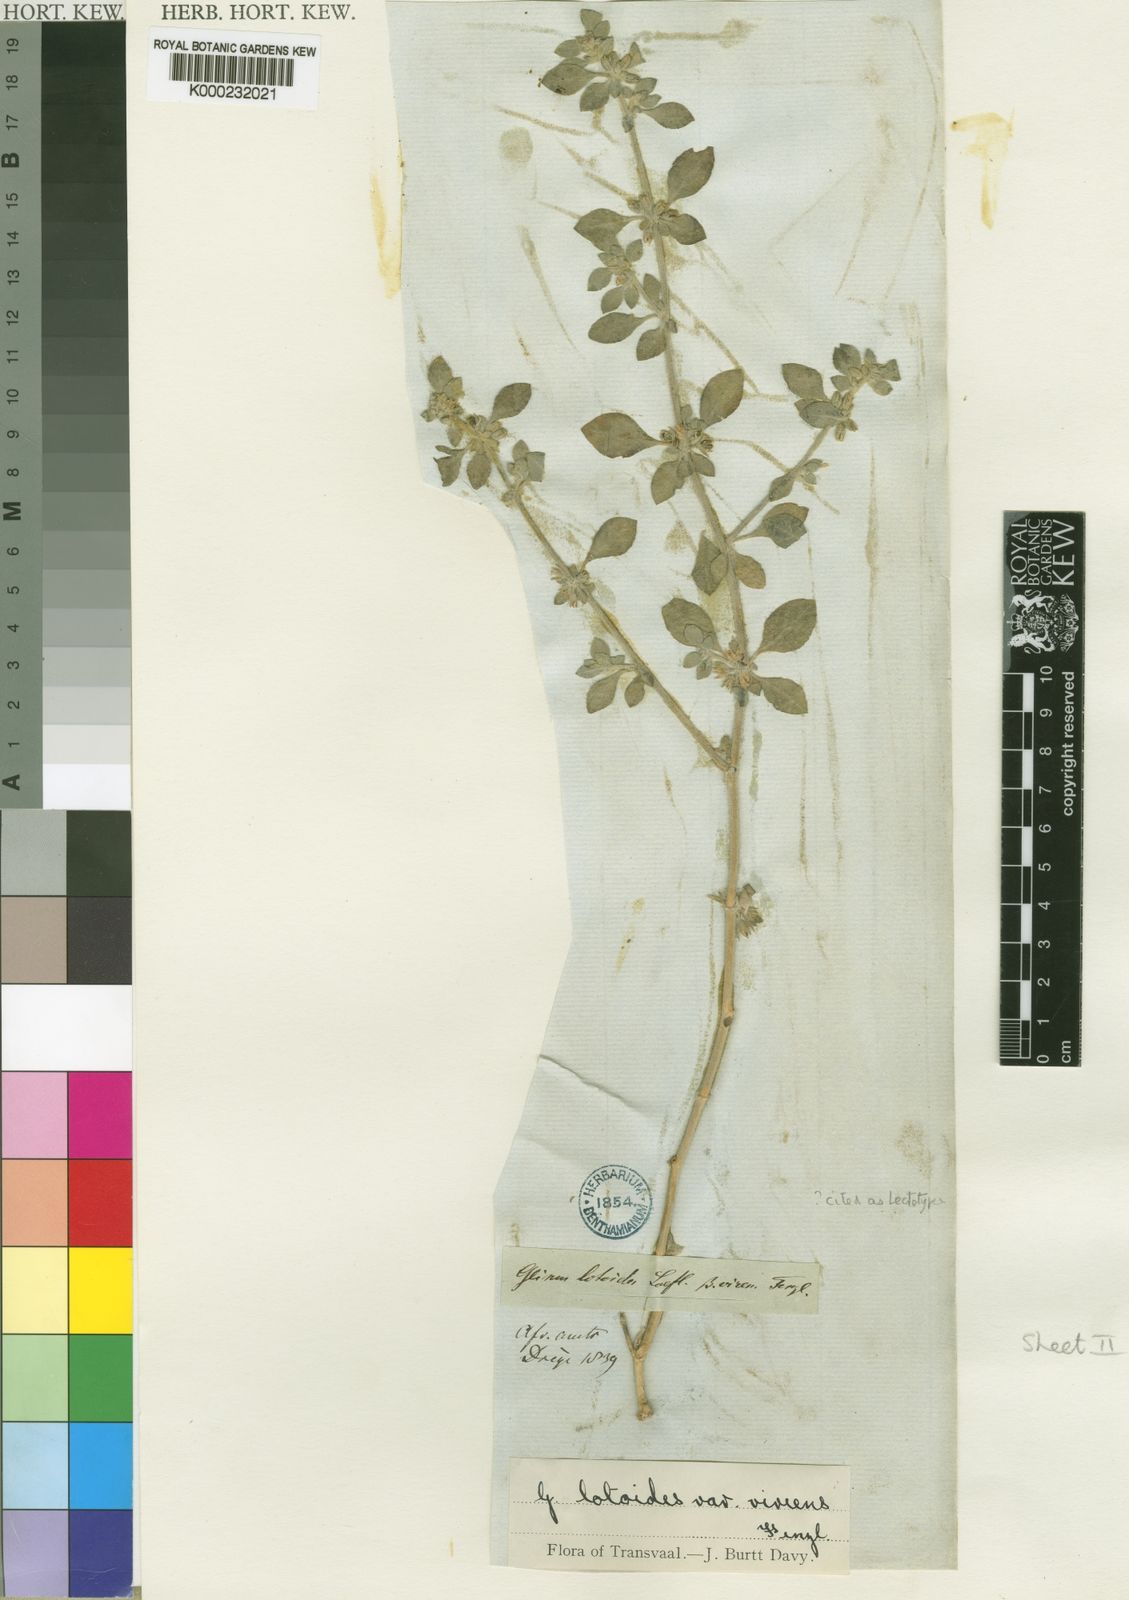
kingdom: Plantae
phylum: Tracheophyta
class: Magnoliopsida
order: Caryophyllales
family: Molluginaceae
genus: Glinus
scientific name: Glinus lotoides
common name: Lotus sweetjuice
